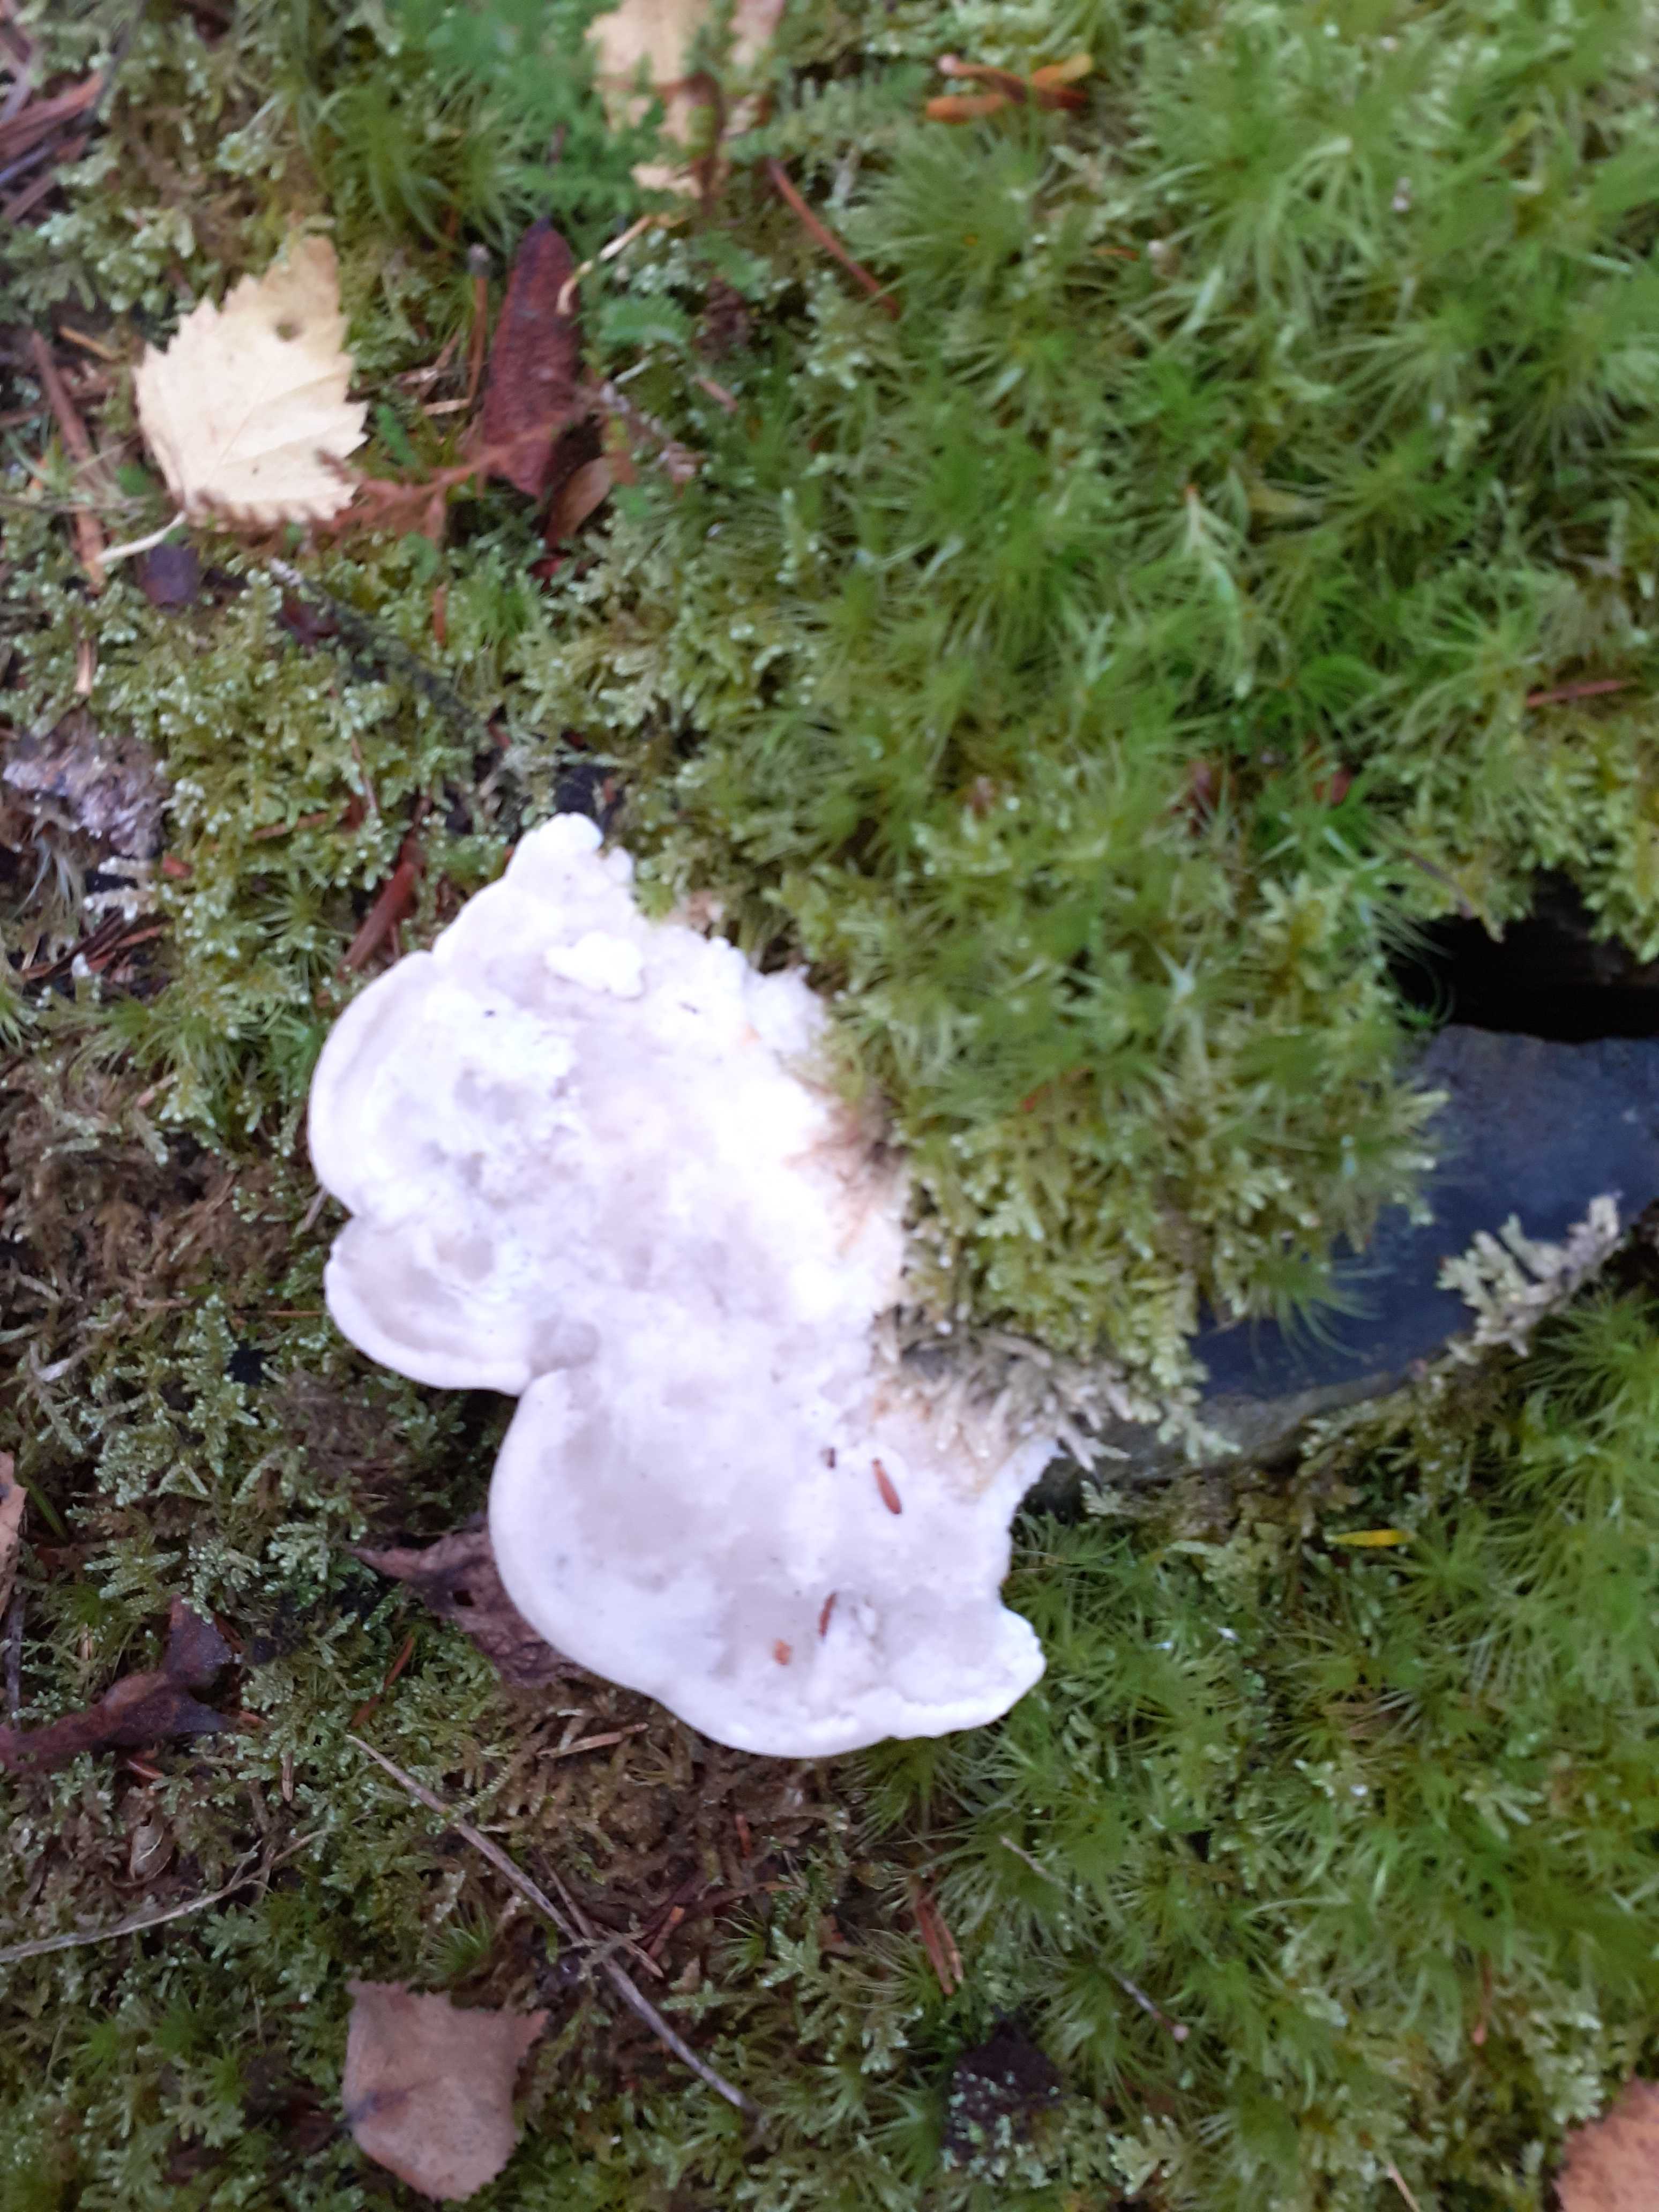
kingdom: Fungi
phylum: Basidiomycota
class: Agaricomycetes
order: Polyporales
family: Incrustoporiaceae
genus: Tyromyces
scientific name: Tyromyces lacteus
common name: mælkehvid kødporesvamp
